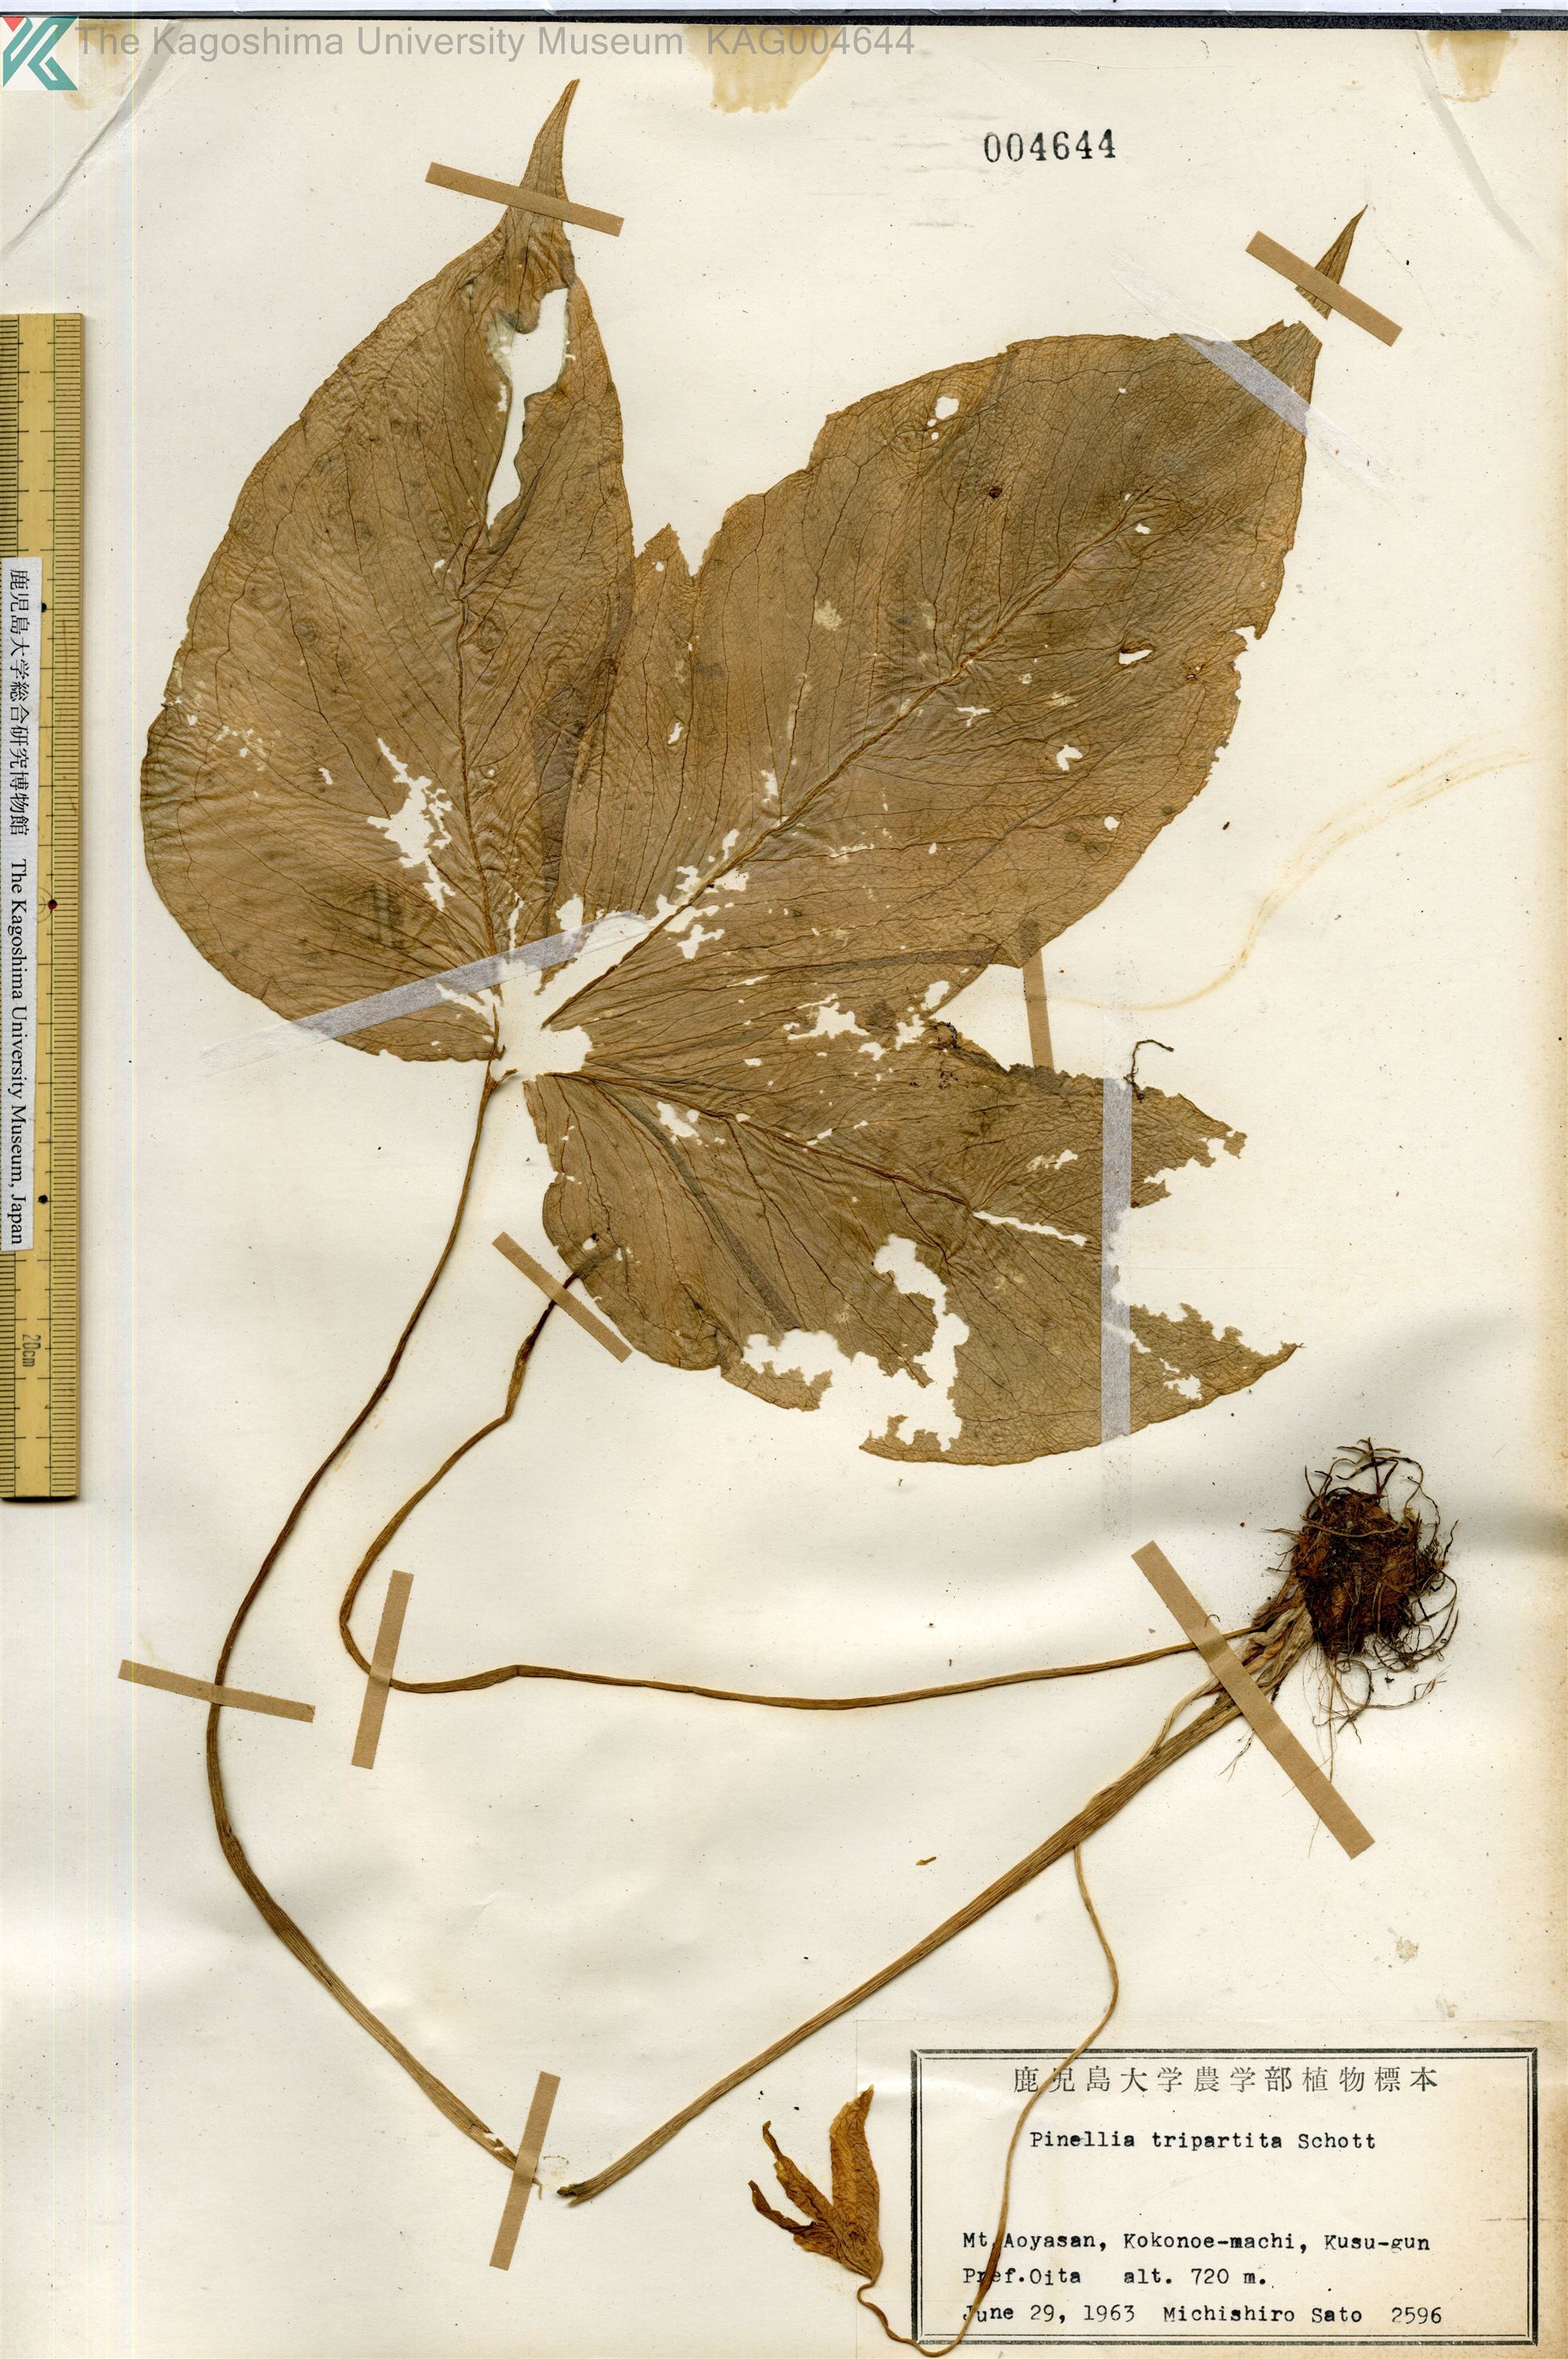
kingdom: Plantae
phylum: Tracheophyta
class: Liliopsida
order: Alismatales
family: Araceae
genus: Pinellia
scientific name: Pinellia tripartita
